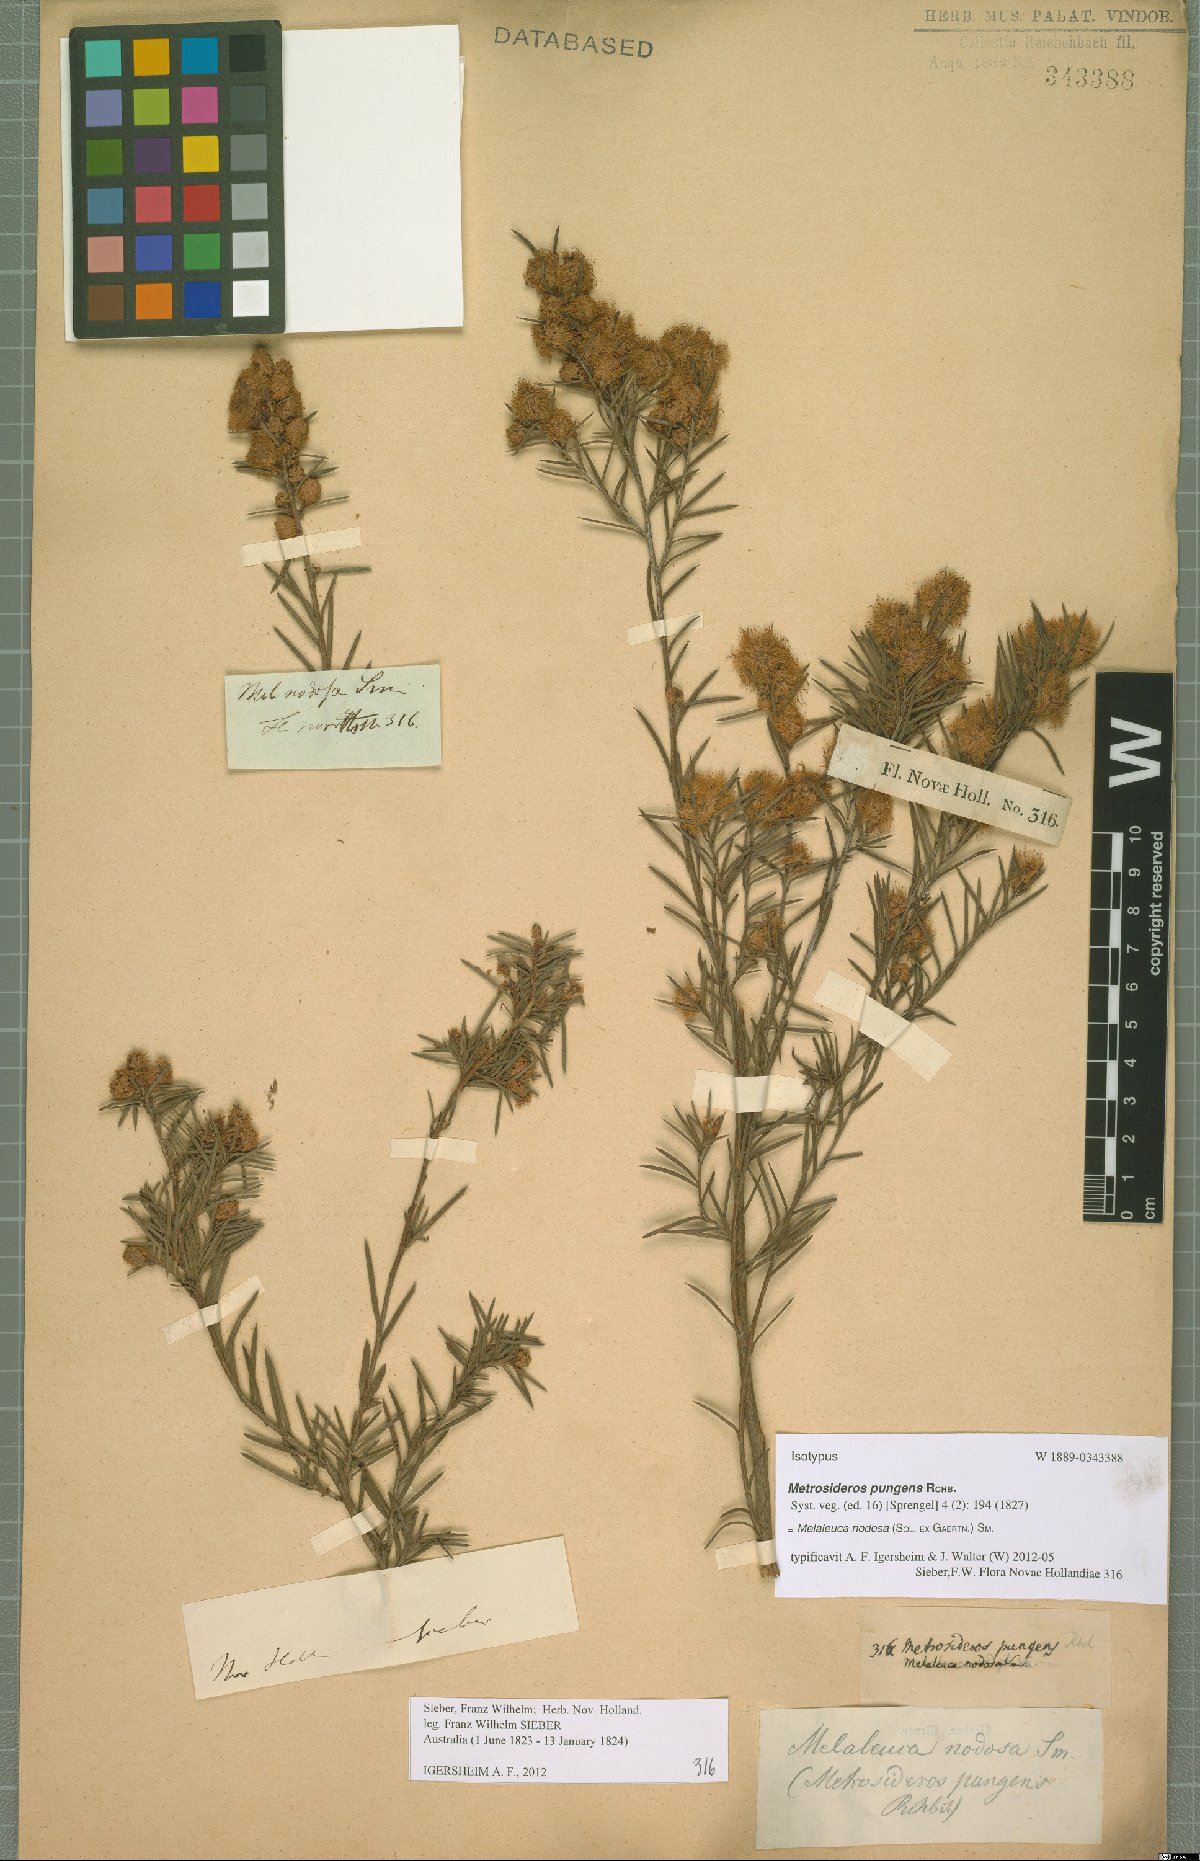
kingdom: Plantae
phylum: Tracheophyta
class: Magnoliopsida
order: Myrtales
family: Myrtaceae
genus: Melaleuca
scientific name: Melaleuca nodosa
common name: Prickly-leaf paperbark
